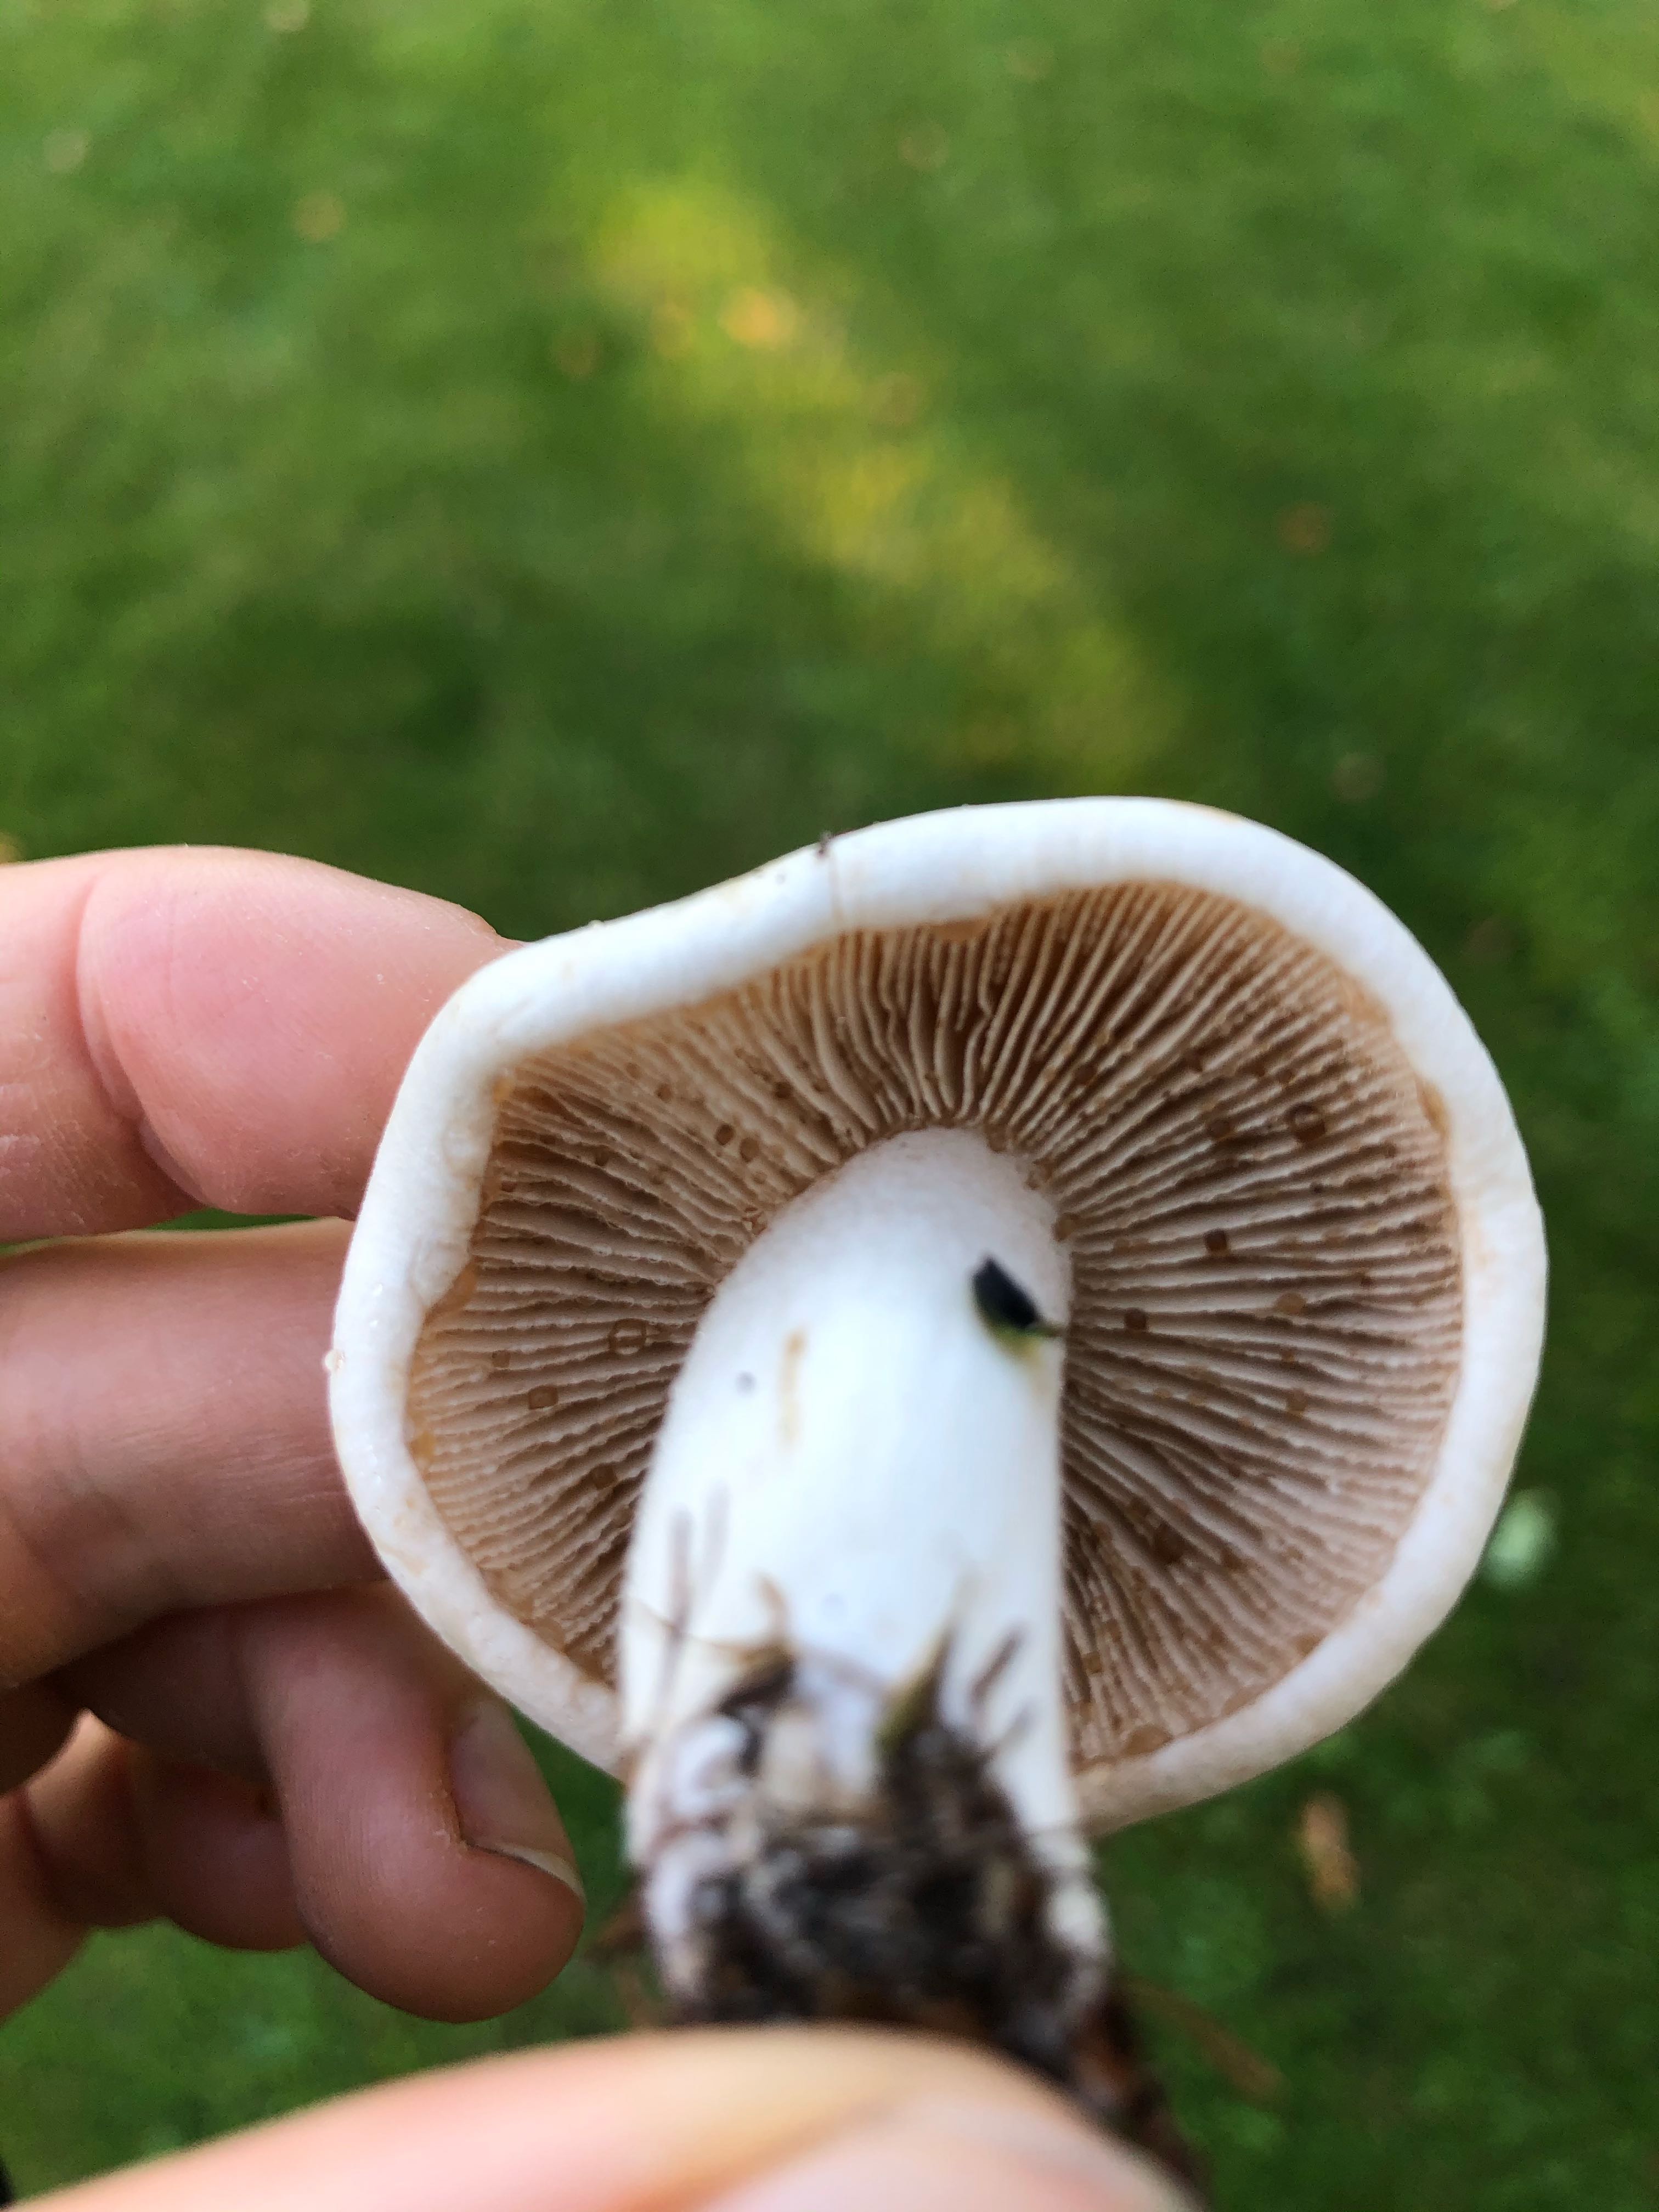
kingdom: Fungi
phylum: Basidiomycota
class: Agaricomycetes
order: Agaricales
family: Hymenogastraceae
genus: Hebeloma
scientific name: Hebeloma
